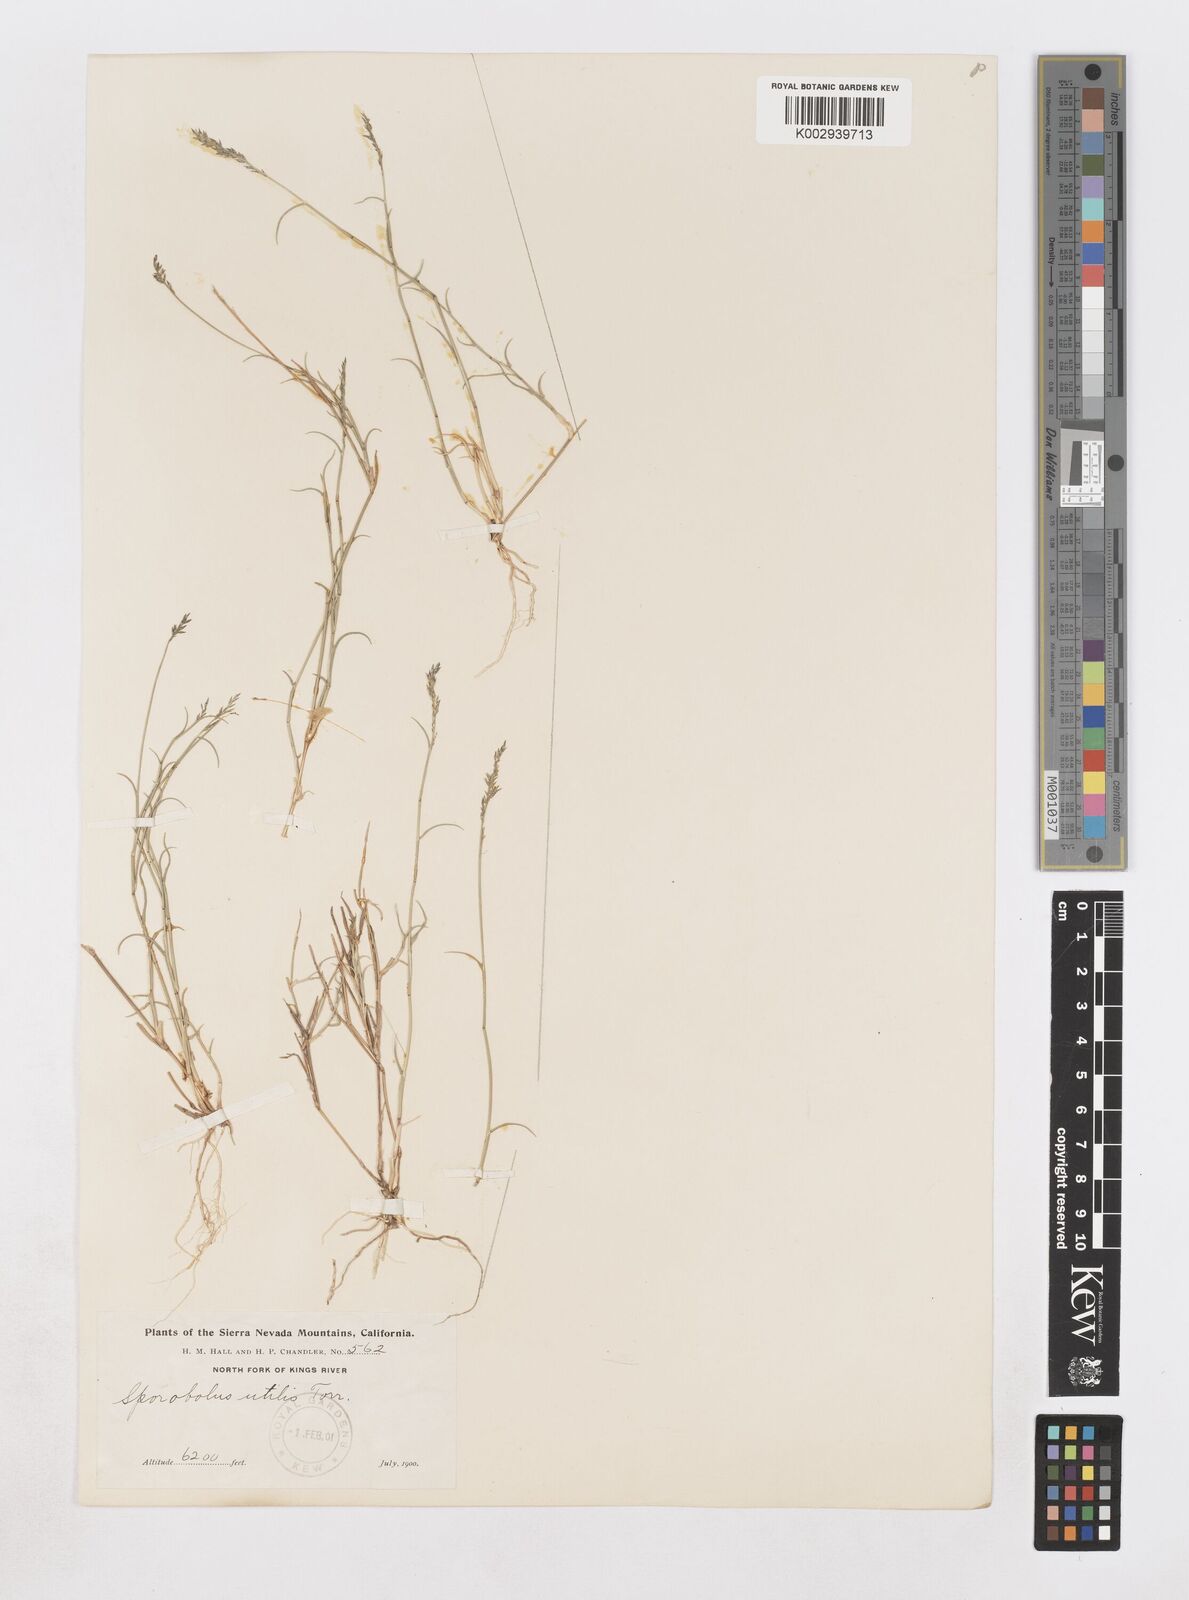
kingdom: Plantae
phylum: Tracheophyta
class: Liliopsida
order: Poales
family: Poaceae
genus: Muhlenbergia
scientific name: Muhlenbergia utilis
